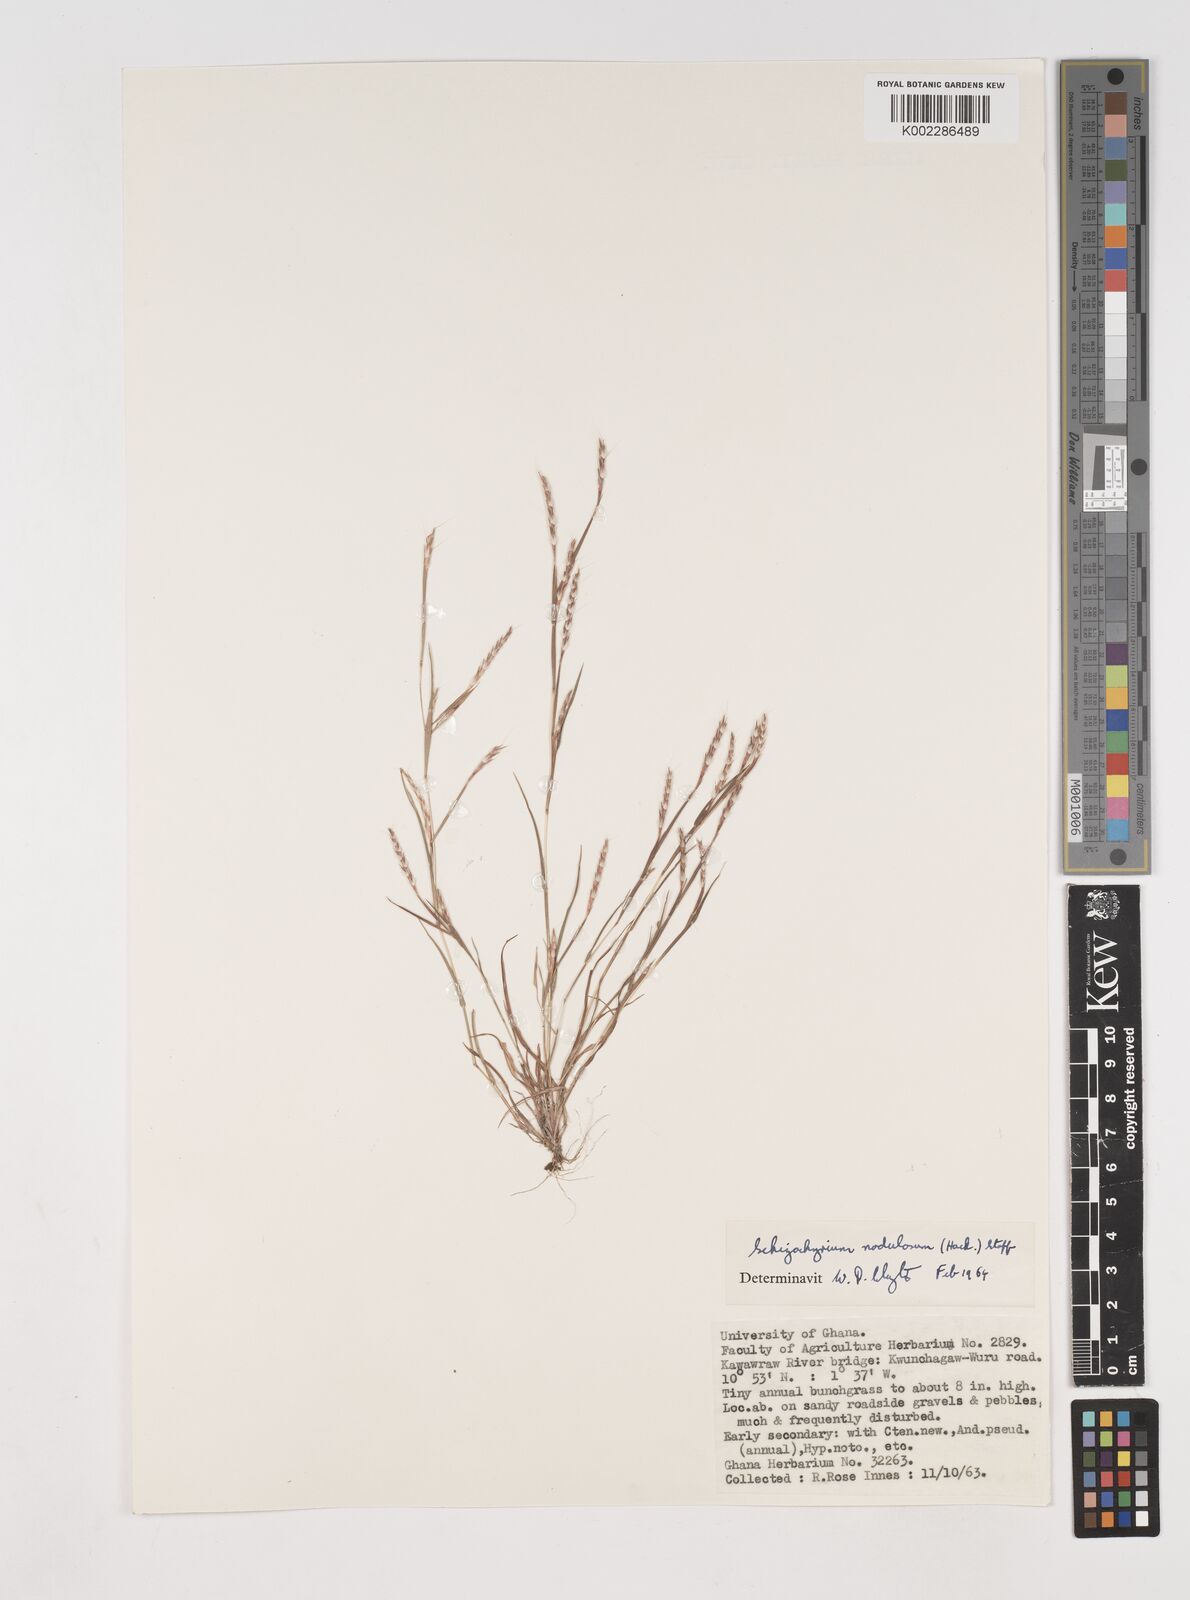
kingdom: Plantae
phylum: Tracheophyta
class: Liliopsida
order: Poales
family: Poaceae
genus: Schizachyrium
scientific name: Schizachyrium nodulosum
